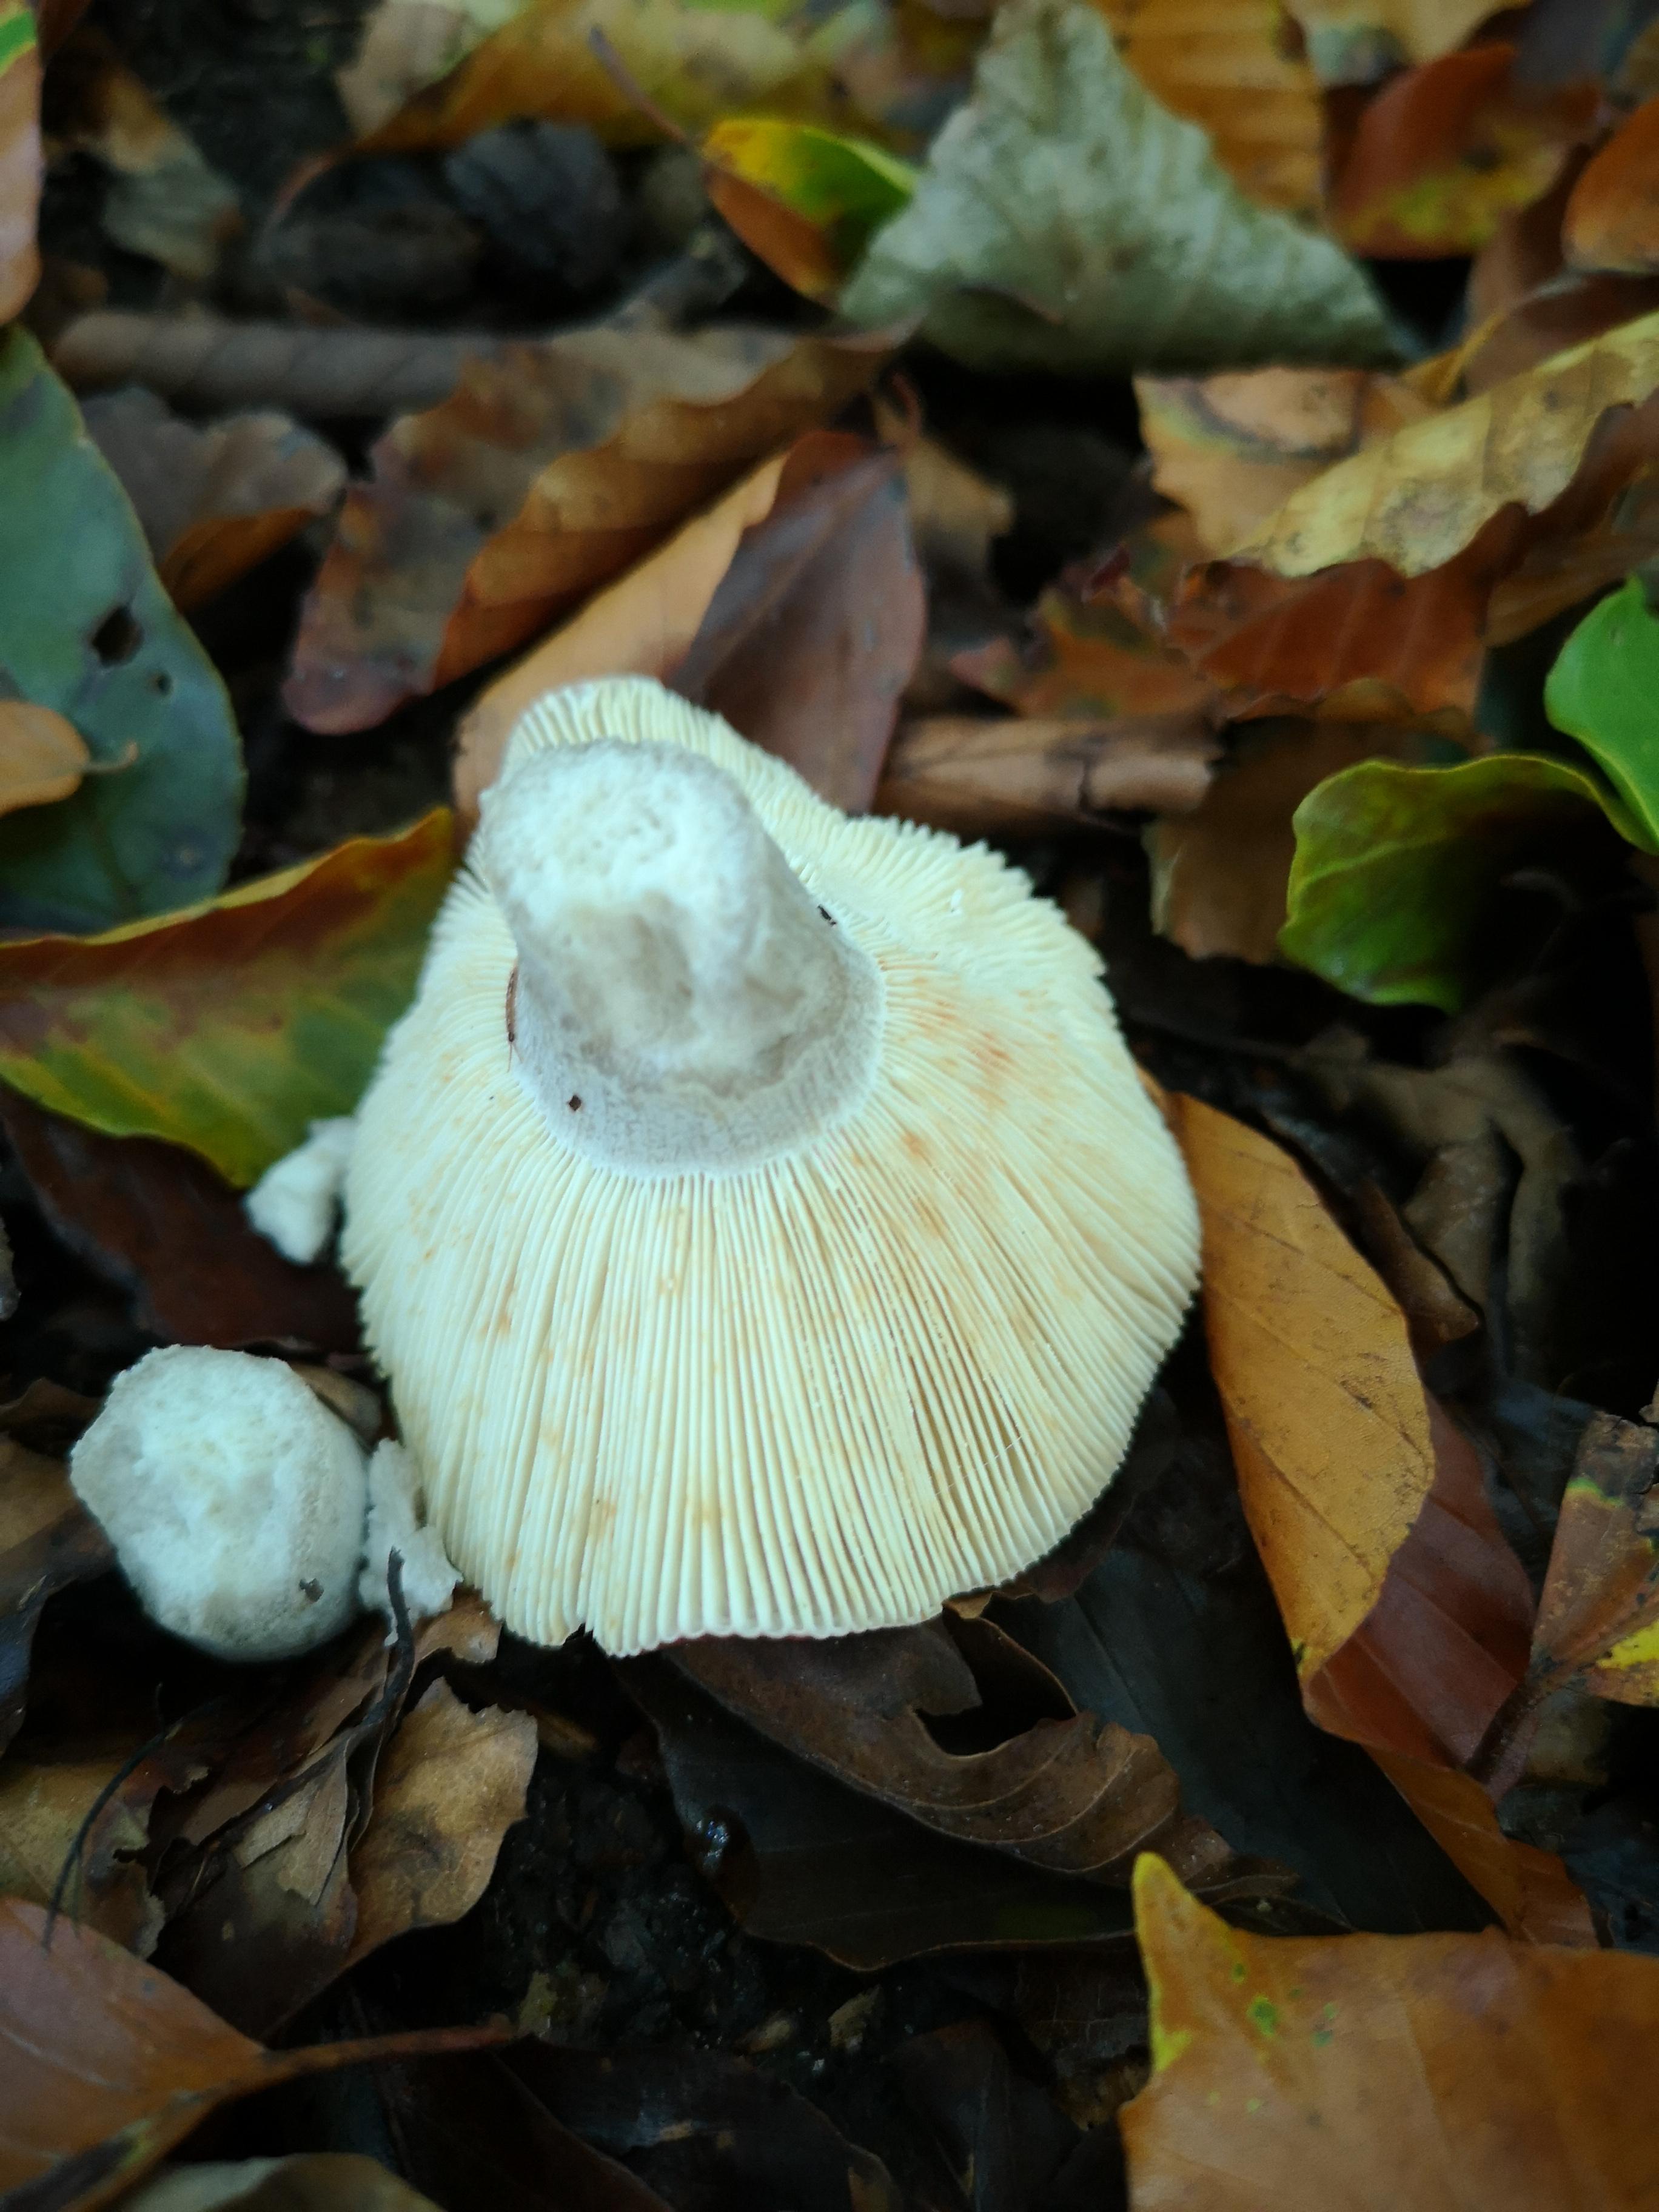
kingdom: Fungi
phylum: Basidiomycota
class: Agaricomycetes
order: Russulales
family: Russulaceae
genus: Russula
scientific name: Russula atropurpurea
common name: purpurbroget skørhat
